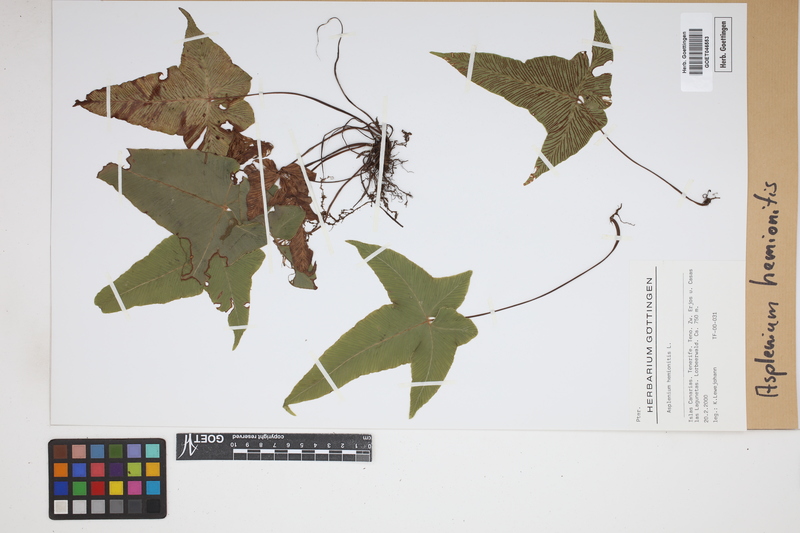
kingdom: Plantae
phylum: Tracheophyta
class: Polypodiopsida
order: Polypodiales
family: Aspleniaceae
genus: Asplenium
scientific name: Asplenium hemionitis
